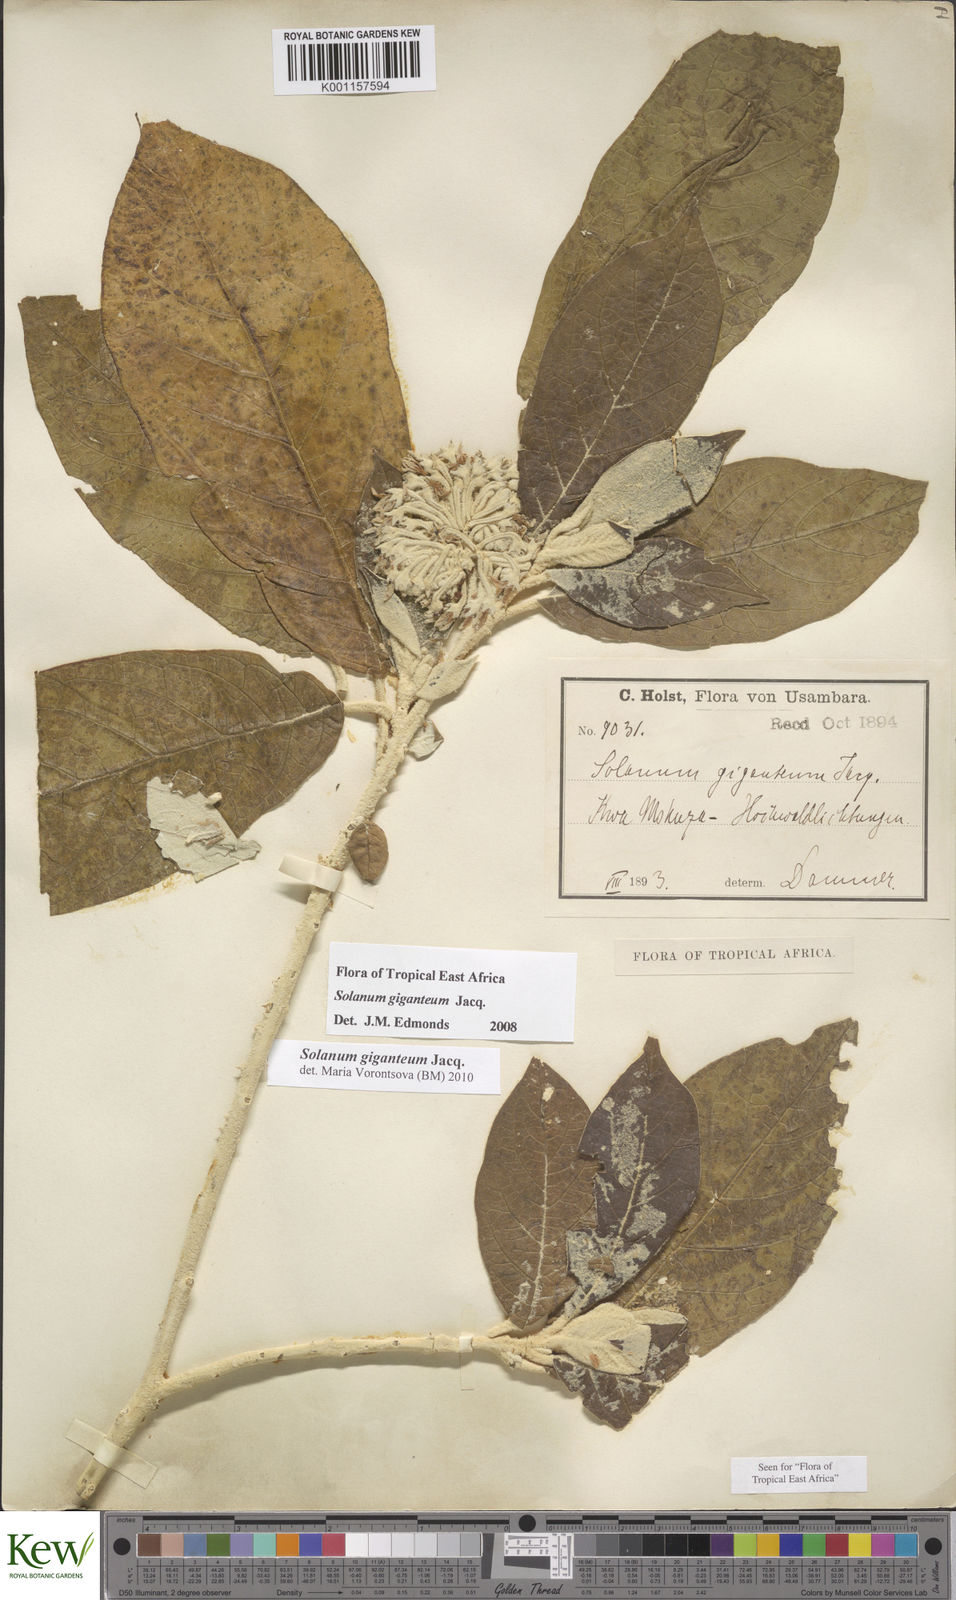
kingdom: Plantae
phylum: Tracheophyta
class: Magnoliopsida
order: Solanales
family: Solanaceae
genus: Solanum
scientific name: Solanum giganteum
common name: Healing-leaf-tree
